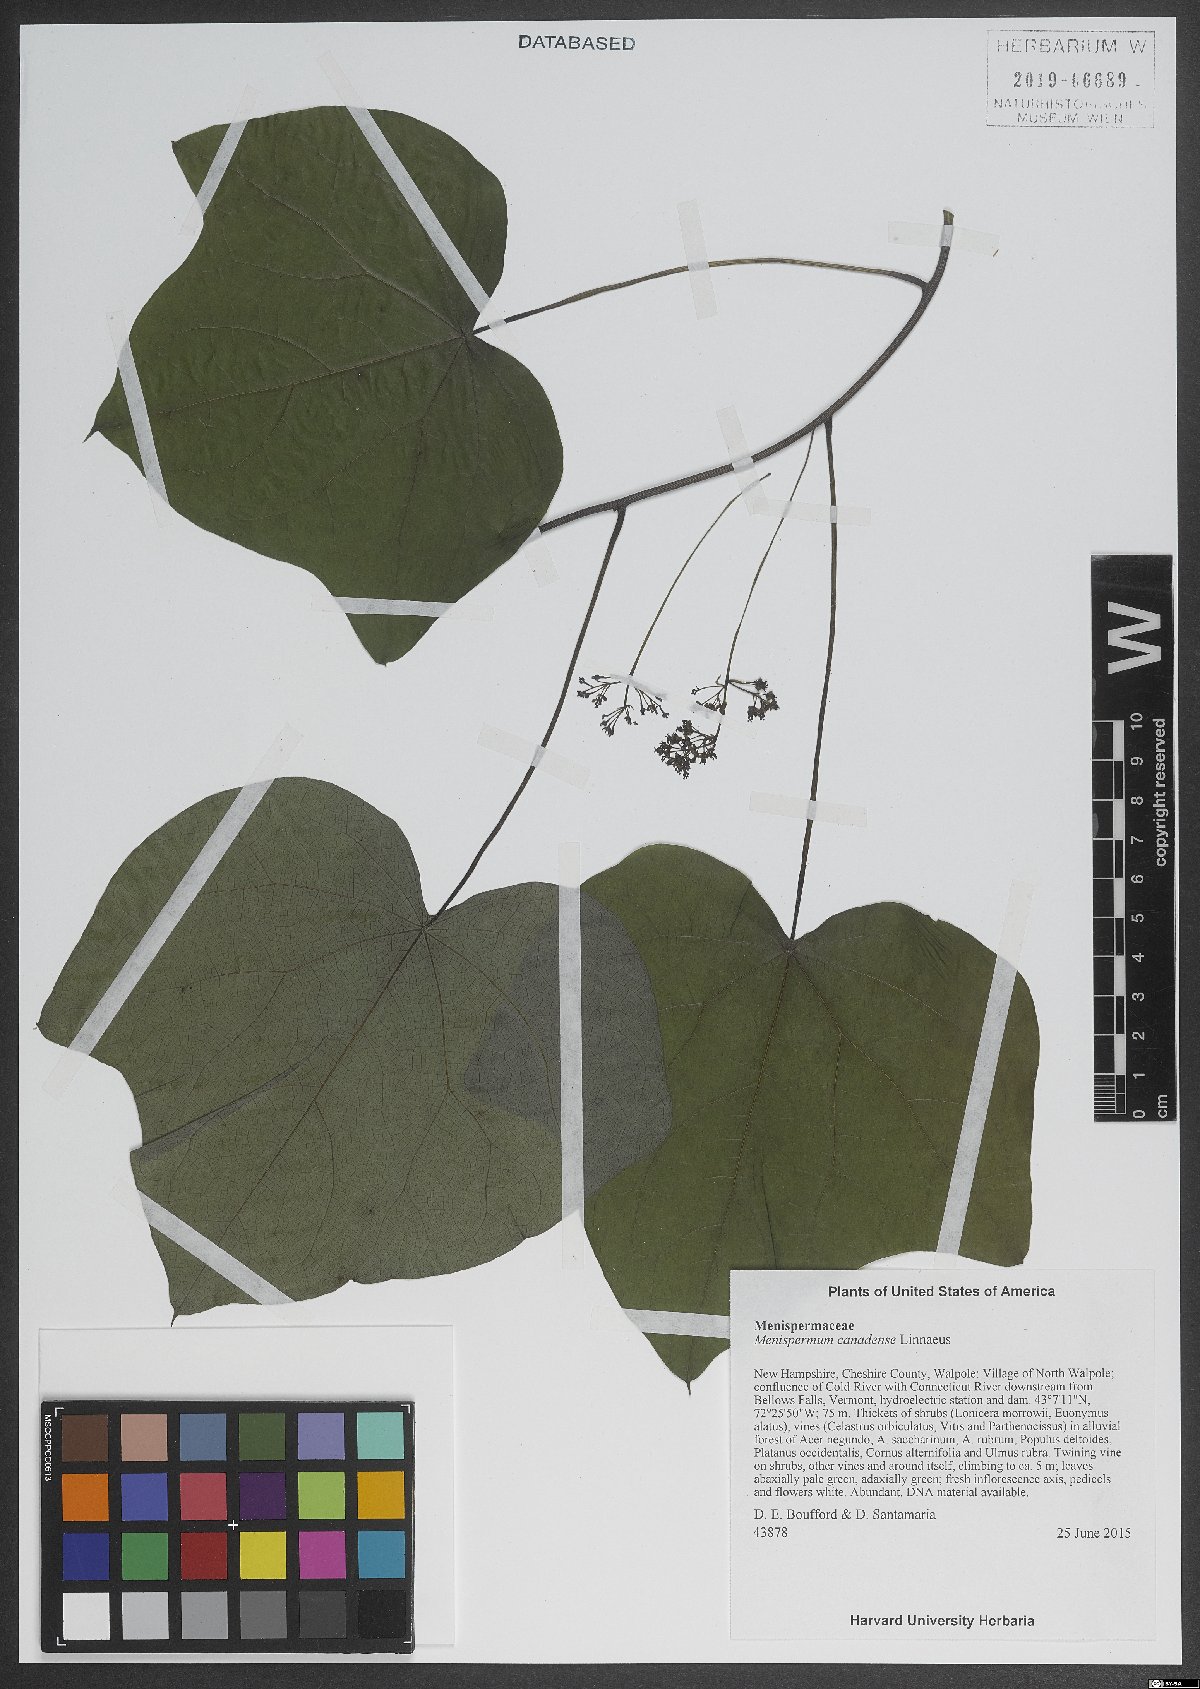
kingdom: Plantae
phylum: Tracheophyta
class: Magnoliopsida
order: Ranunculales
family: Menispermaceae
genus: Menispermum
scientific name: Menispermum canadense
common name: Moonseed
